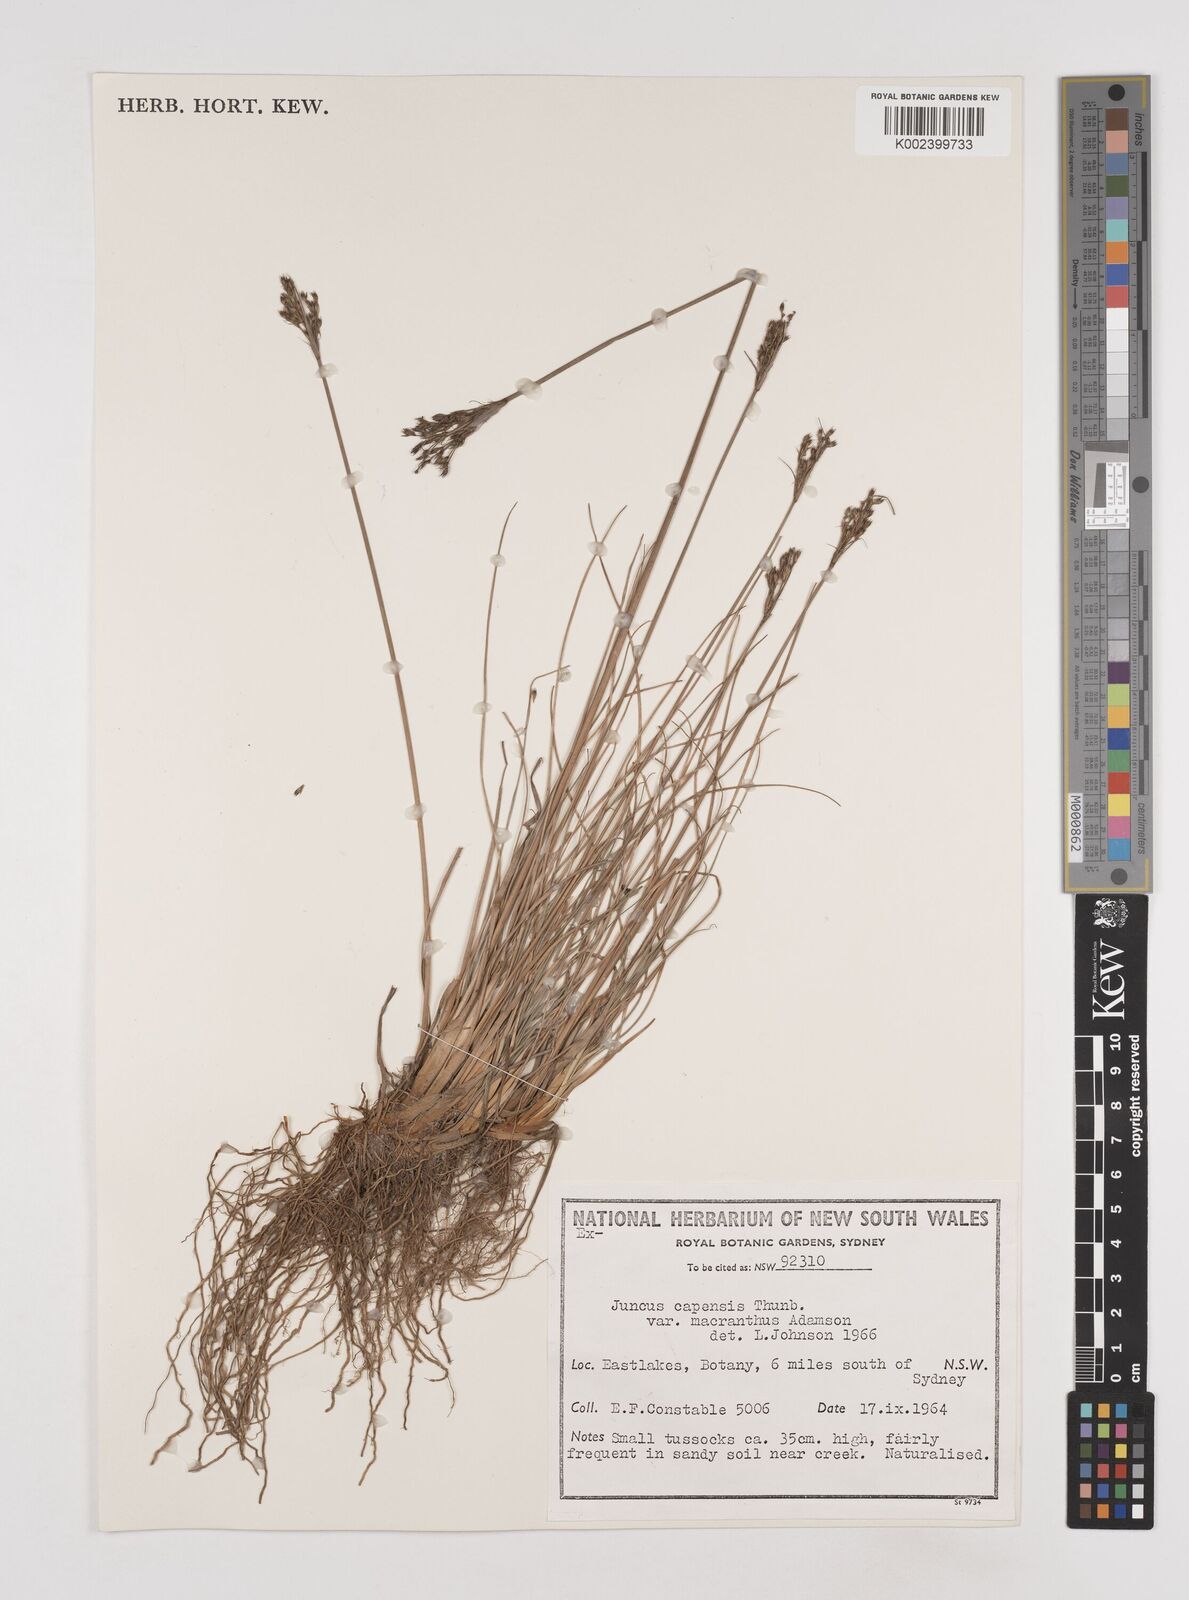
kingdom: Plantae
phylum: Tracheophyta
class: Liliopsida
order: Poales
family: Juncaceae
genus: Juncus
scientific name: Juncus capensis
